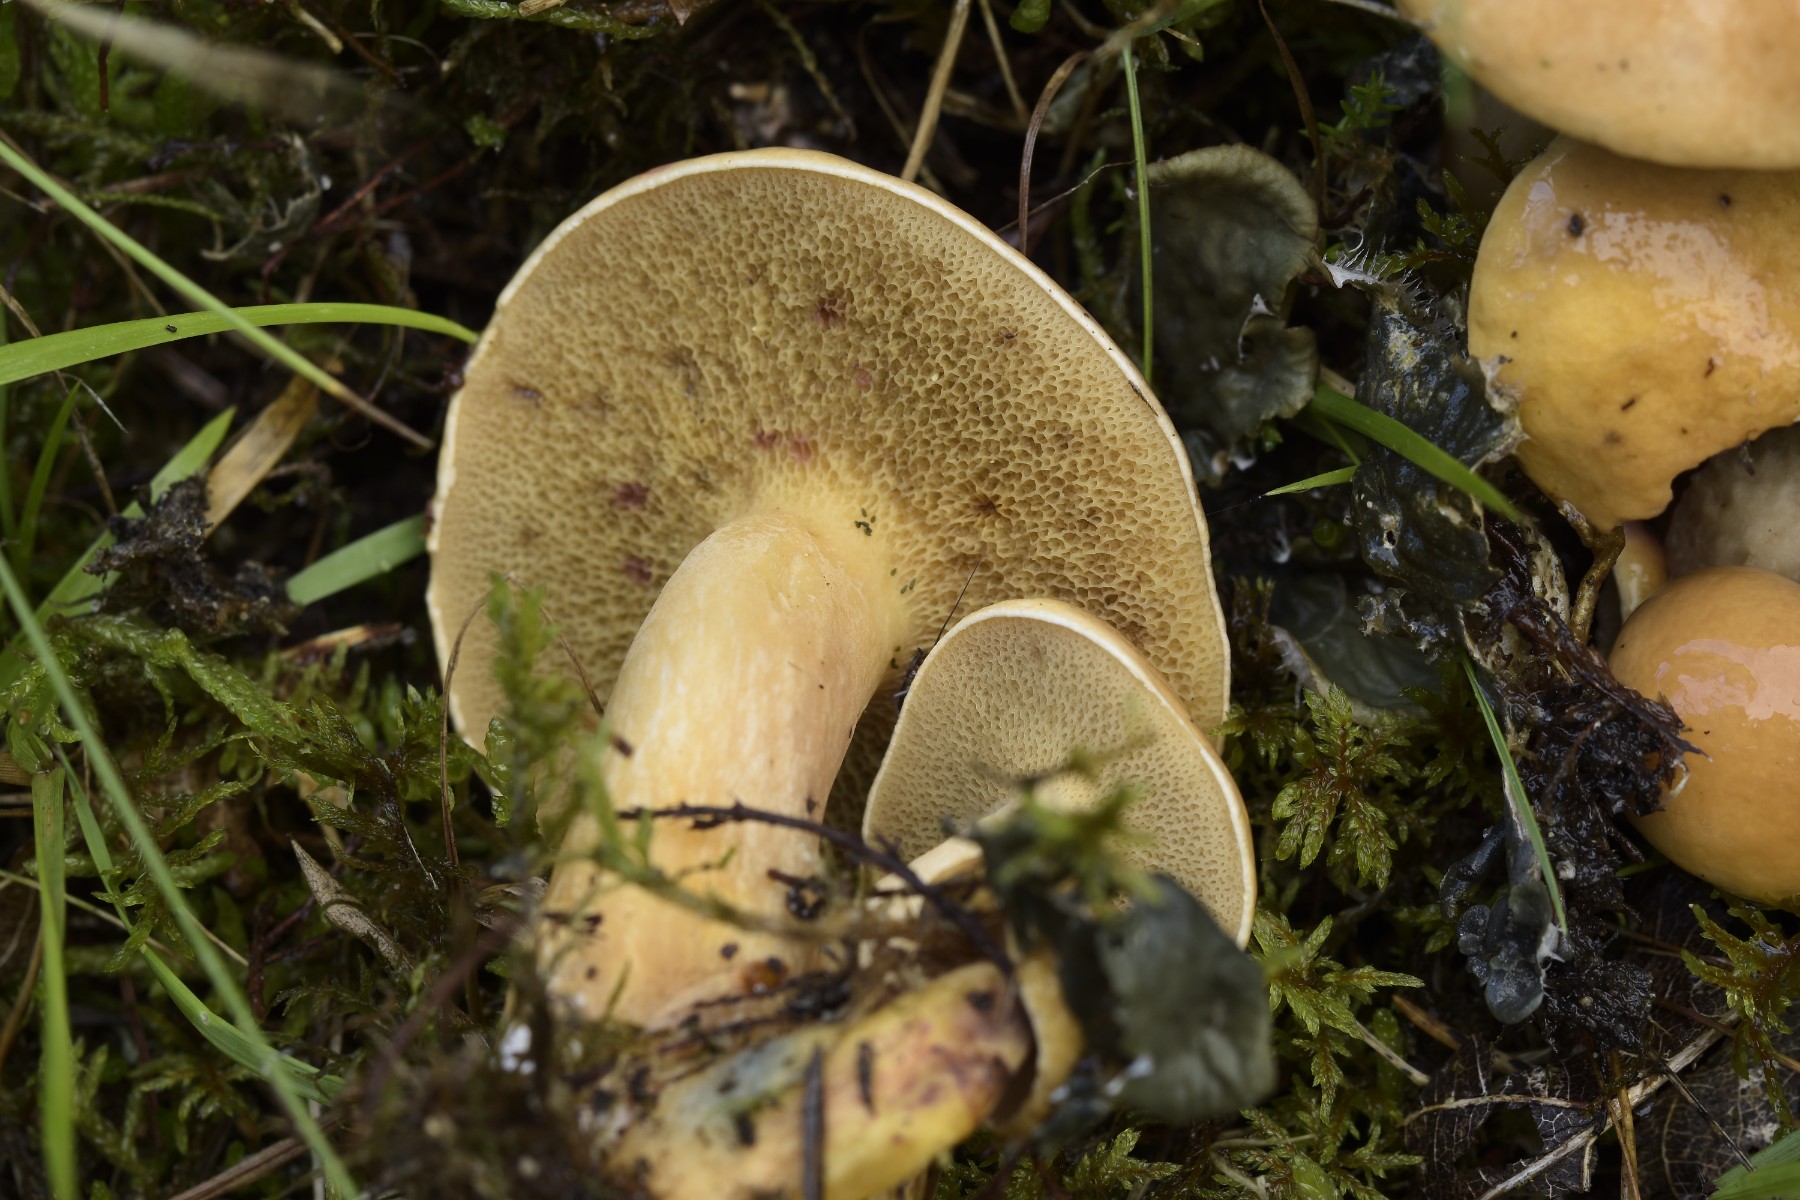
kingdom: Fungi
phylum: Basidiomycota
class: Agaricomycetes
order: Boletales
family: Suillaceae
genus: Suillus
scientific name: Suillus bovinus
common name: grovporet slimrørhat
